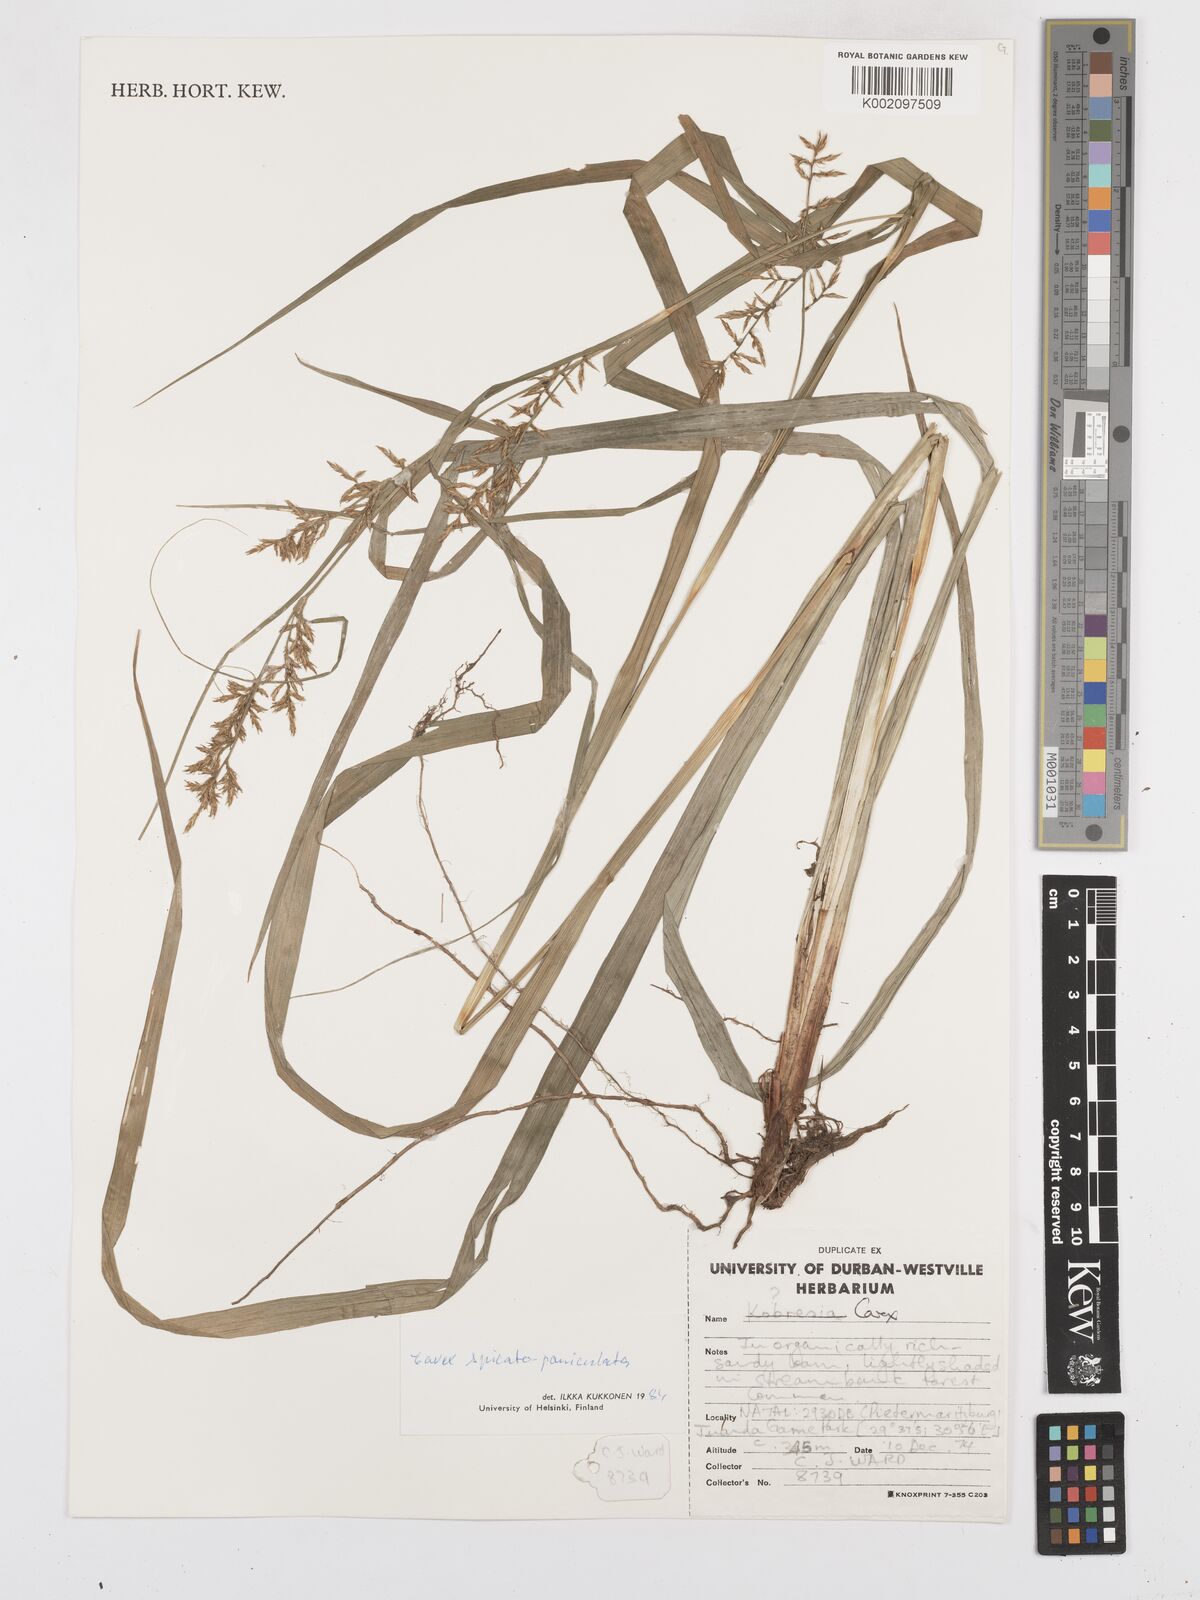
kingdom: Plantae
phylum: Tracheophyta
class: Liliopsida
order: Poales
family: Cyperaceae
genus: Carex
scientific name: Carex spicatopaniculata
